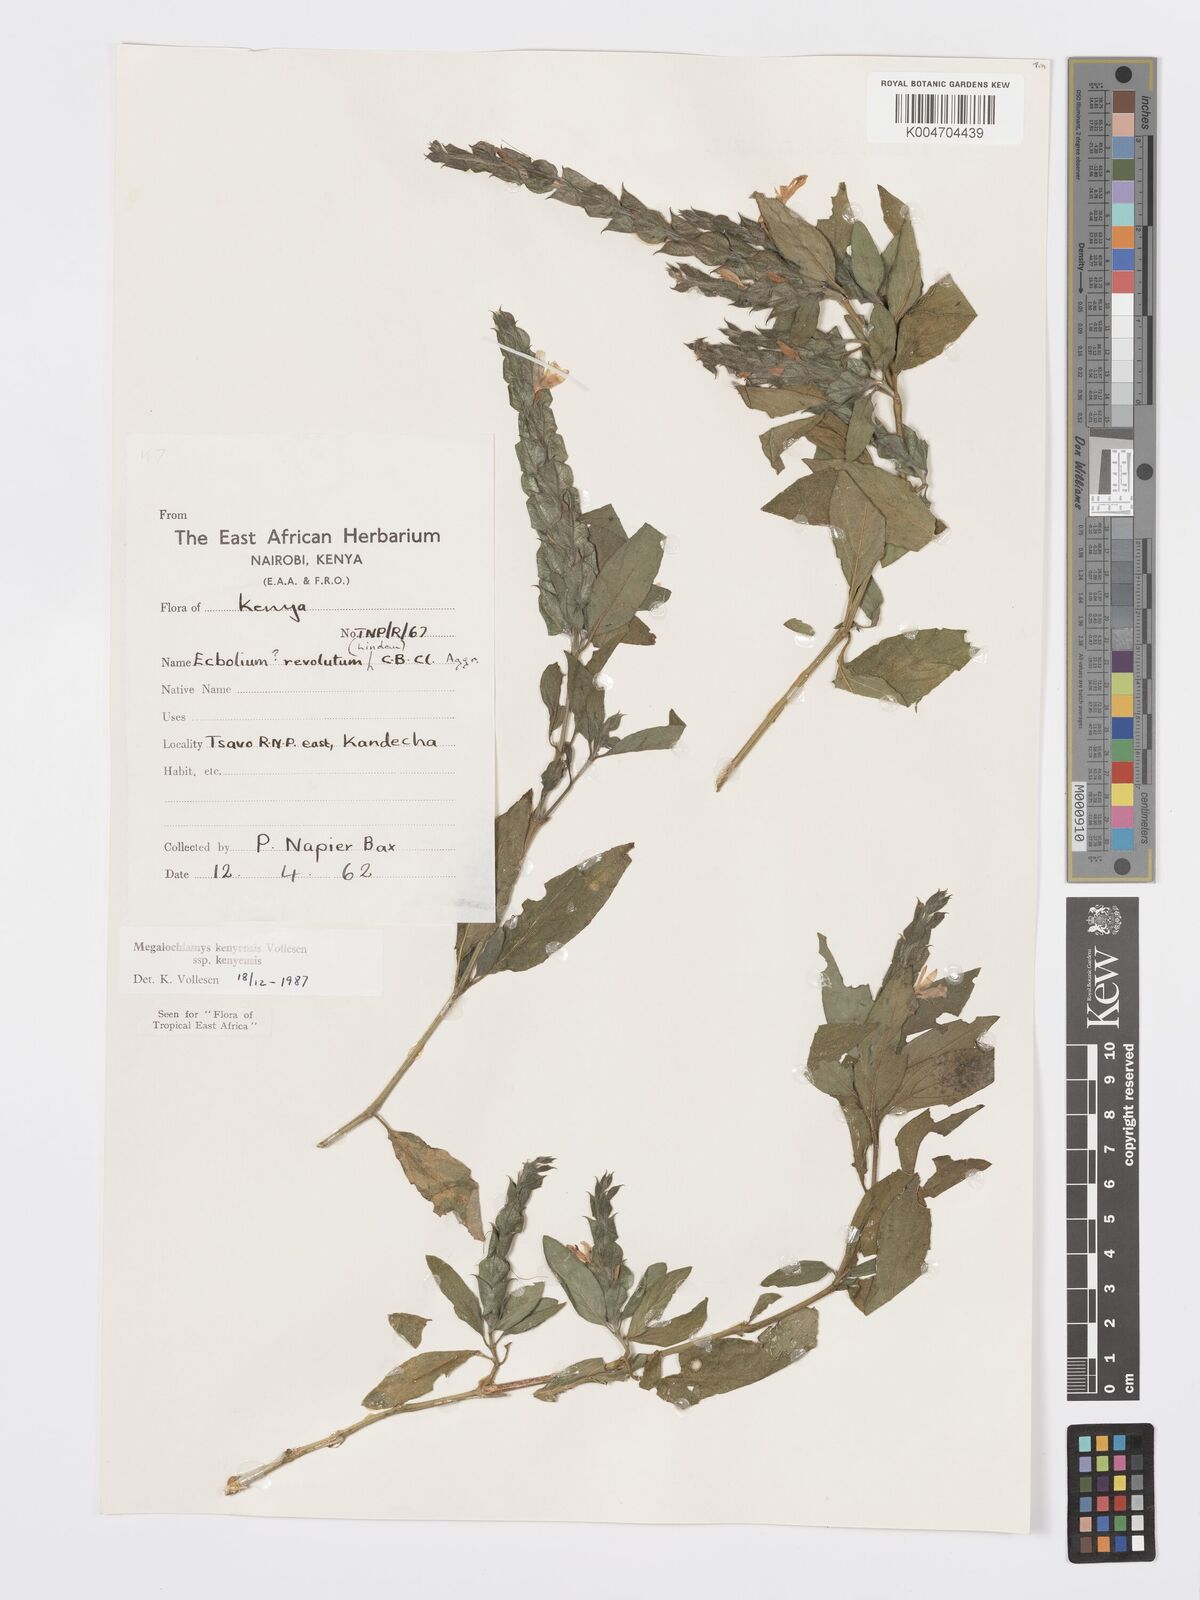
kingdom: Plantae
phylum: Tracheophyta
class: Magnoliopsida
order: Lamiales
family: Acanthaceae
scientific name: Acanthaceae
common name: Acanthaceae
